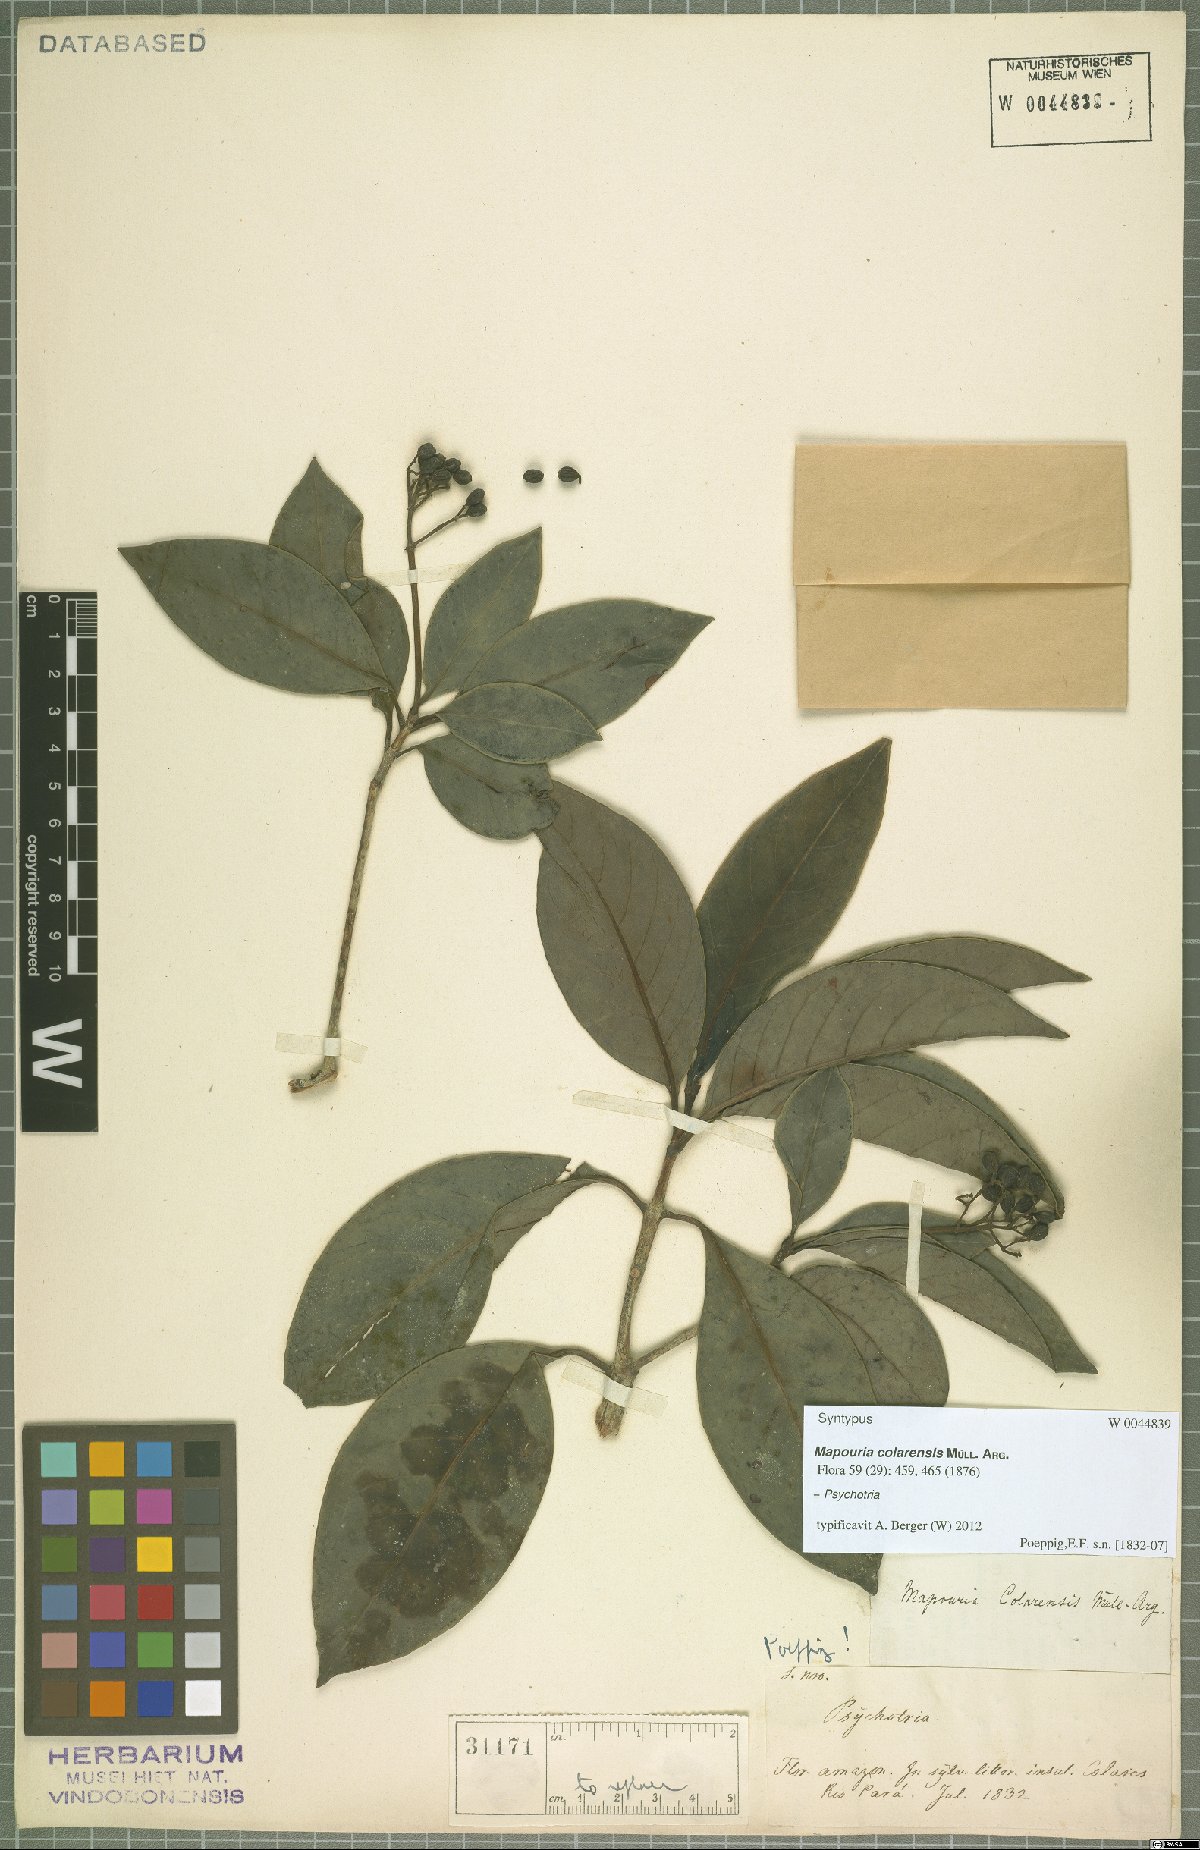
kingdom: Plantae
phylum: Tracheophyta
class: Magnoliopsida
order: Gentianales
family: Rubiaceae
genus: Psychotria
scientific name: Psychotria
